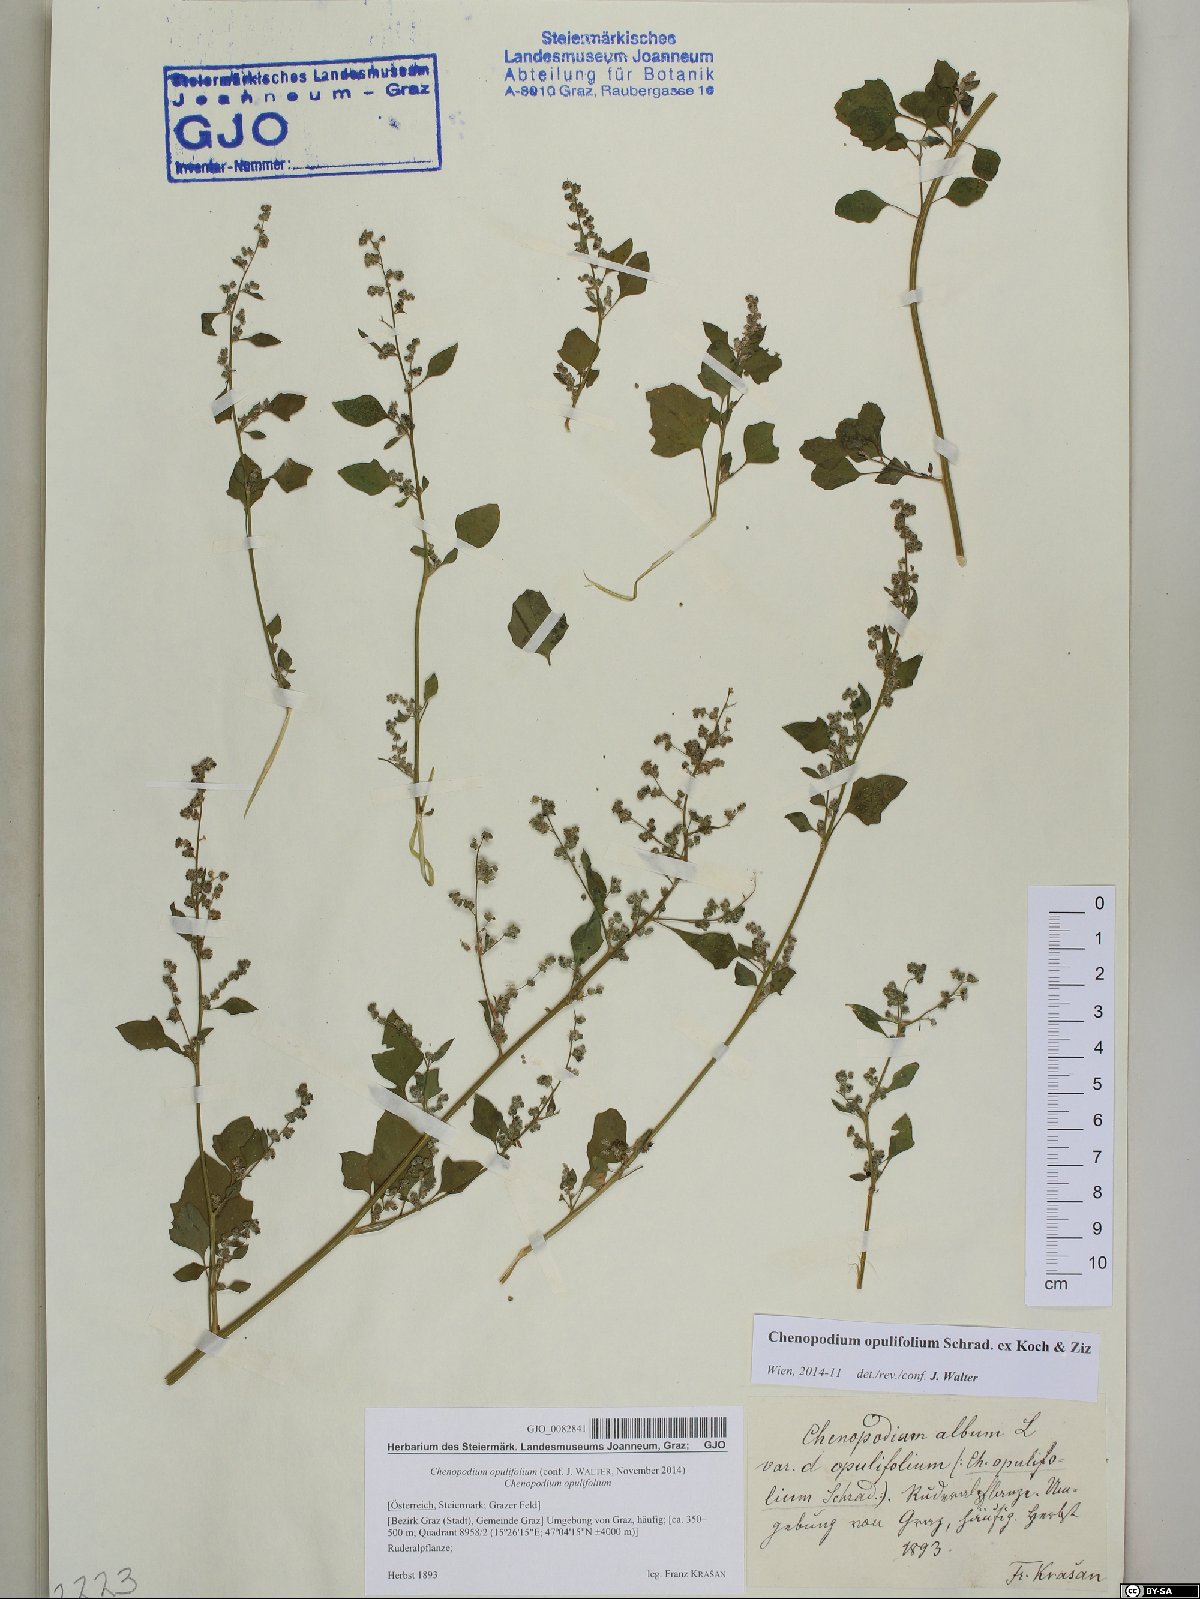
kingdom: Plantae
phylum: Tracheophyta
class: Magnoliopsida
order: Caryophyllales
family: Amaranthaceae
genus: Chenopodium
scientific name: Chenopodium opulifolium
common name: Grey goosefoot
